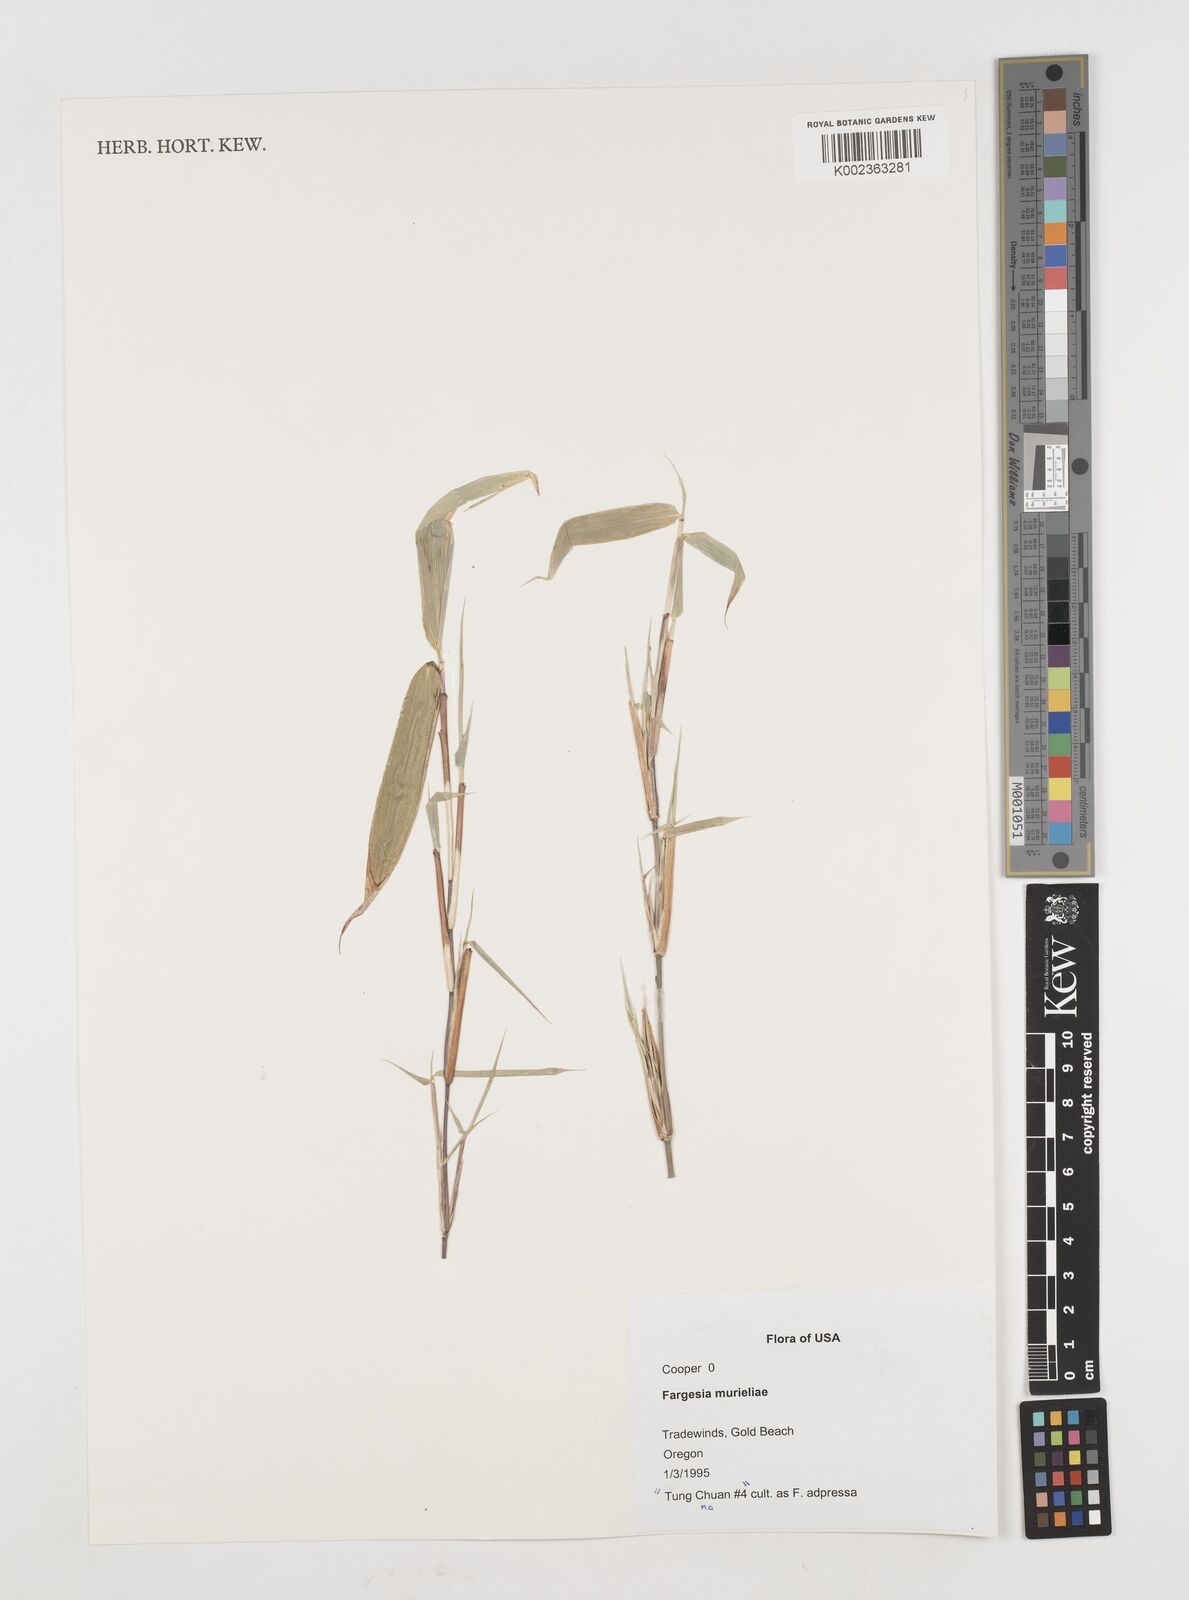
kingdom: Plantae
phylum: Tracheophyta
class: Liliopsida
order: Poales
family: Poaceae
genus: Fargesia
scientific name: Fargesia murielae
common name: Umbrella bamboo
